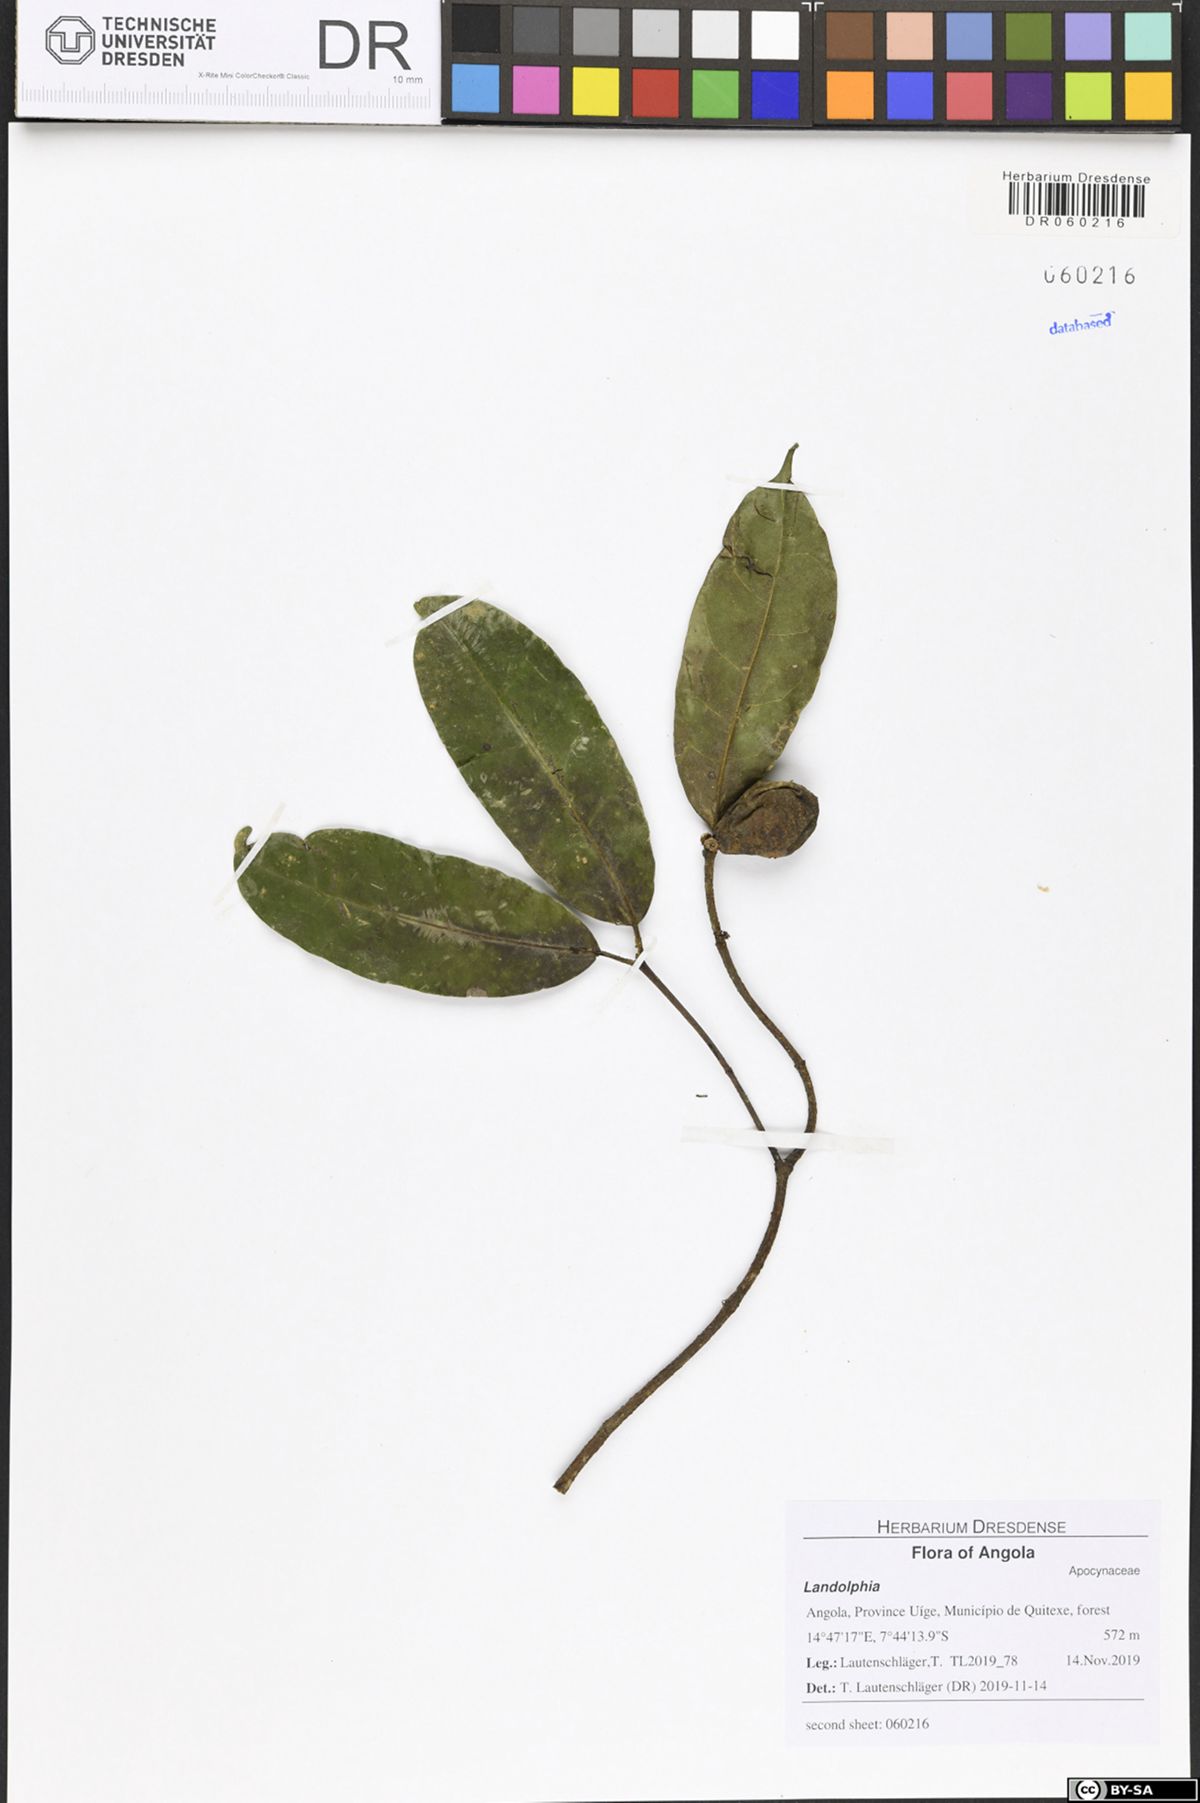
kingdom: Plantae
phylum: Tracheophyta
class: Magnoliopsida
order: Gentianales
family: Apocynaceae
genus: Landolphia
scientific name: Landolphia robustior
